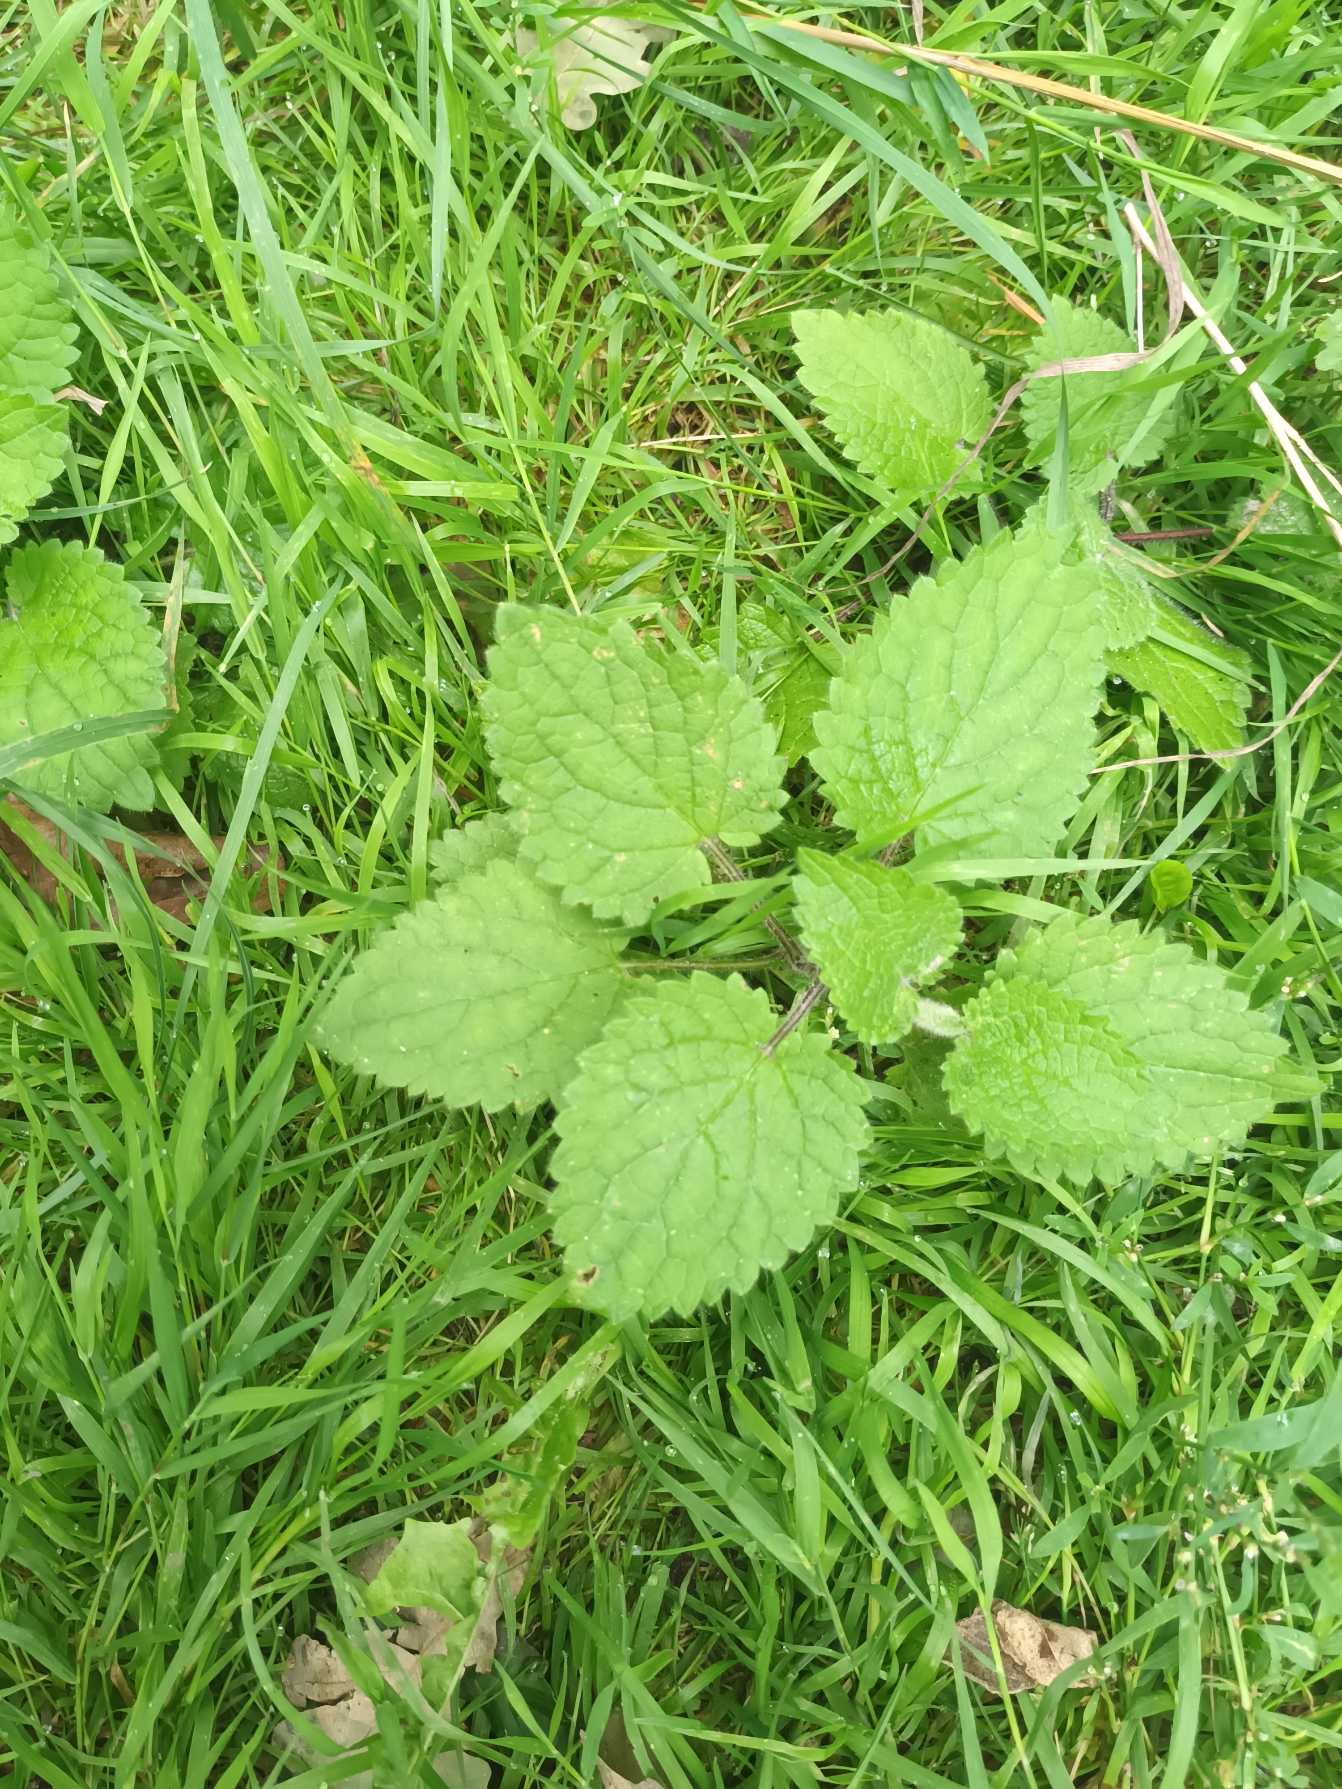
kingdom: Plantae
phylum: Tracheophyta
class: Magnoliopsida
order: Lamiales
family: Lamiaceae
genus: Stachys
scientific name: Stachys sylvatica
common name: Skov-galtetand
